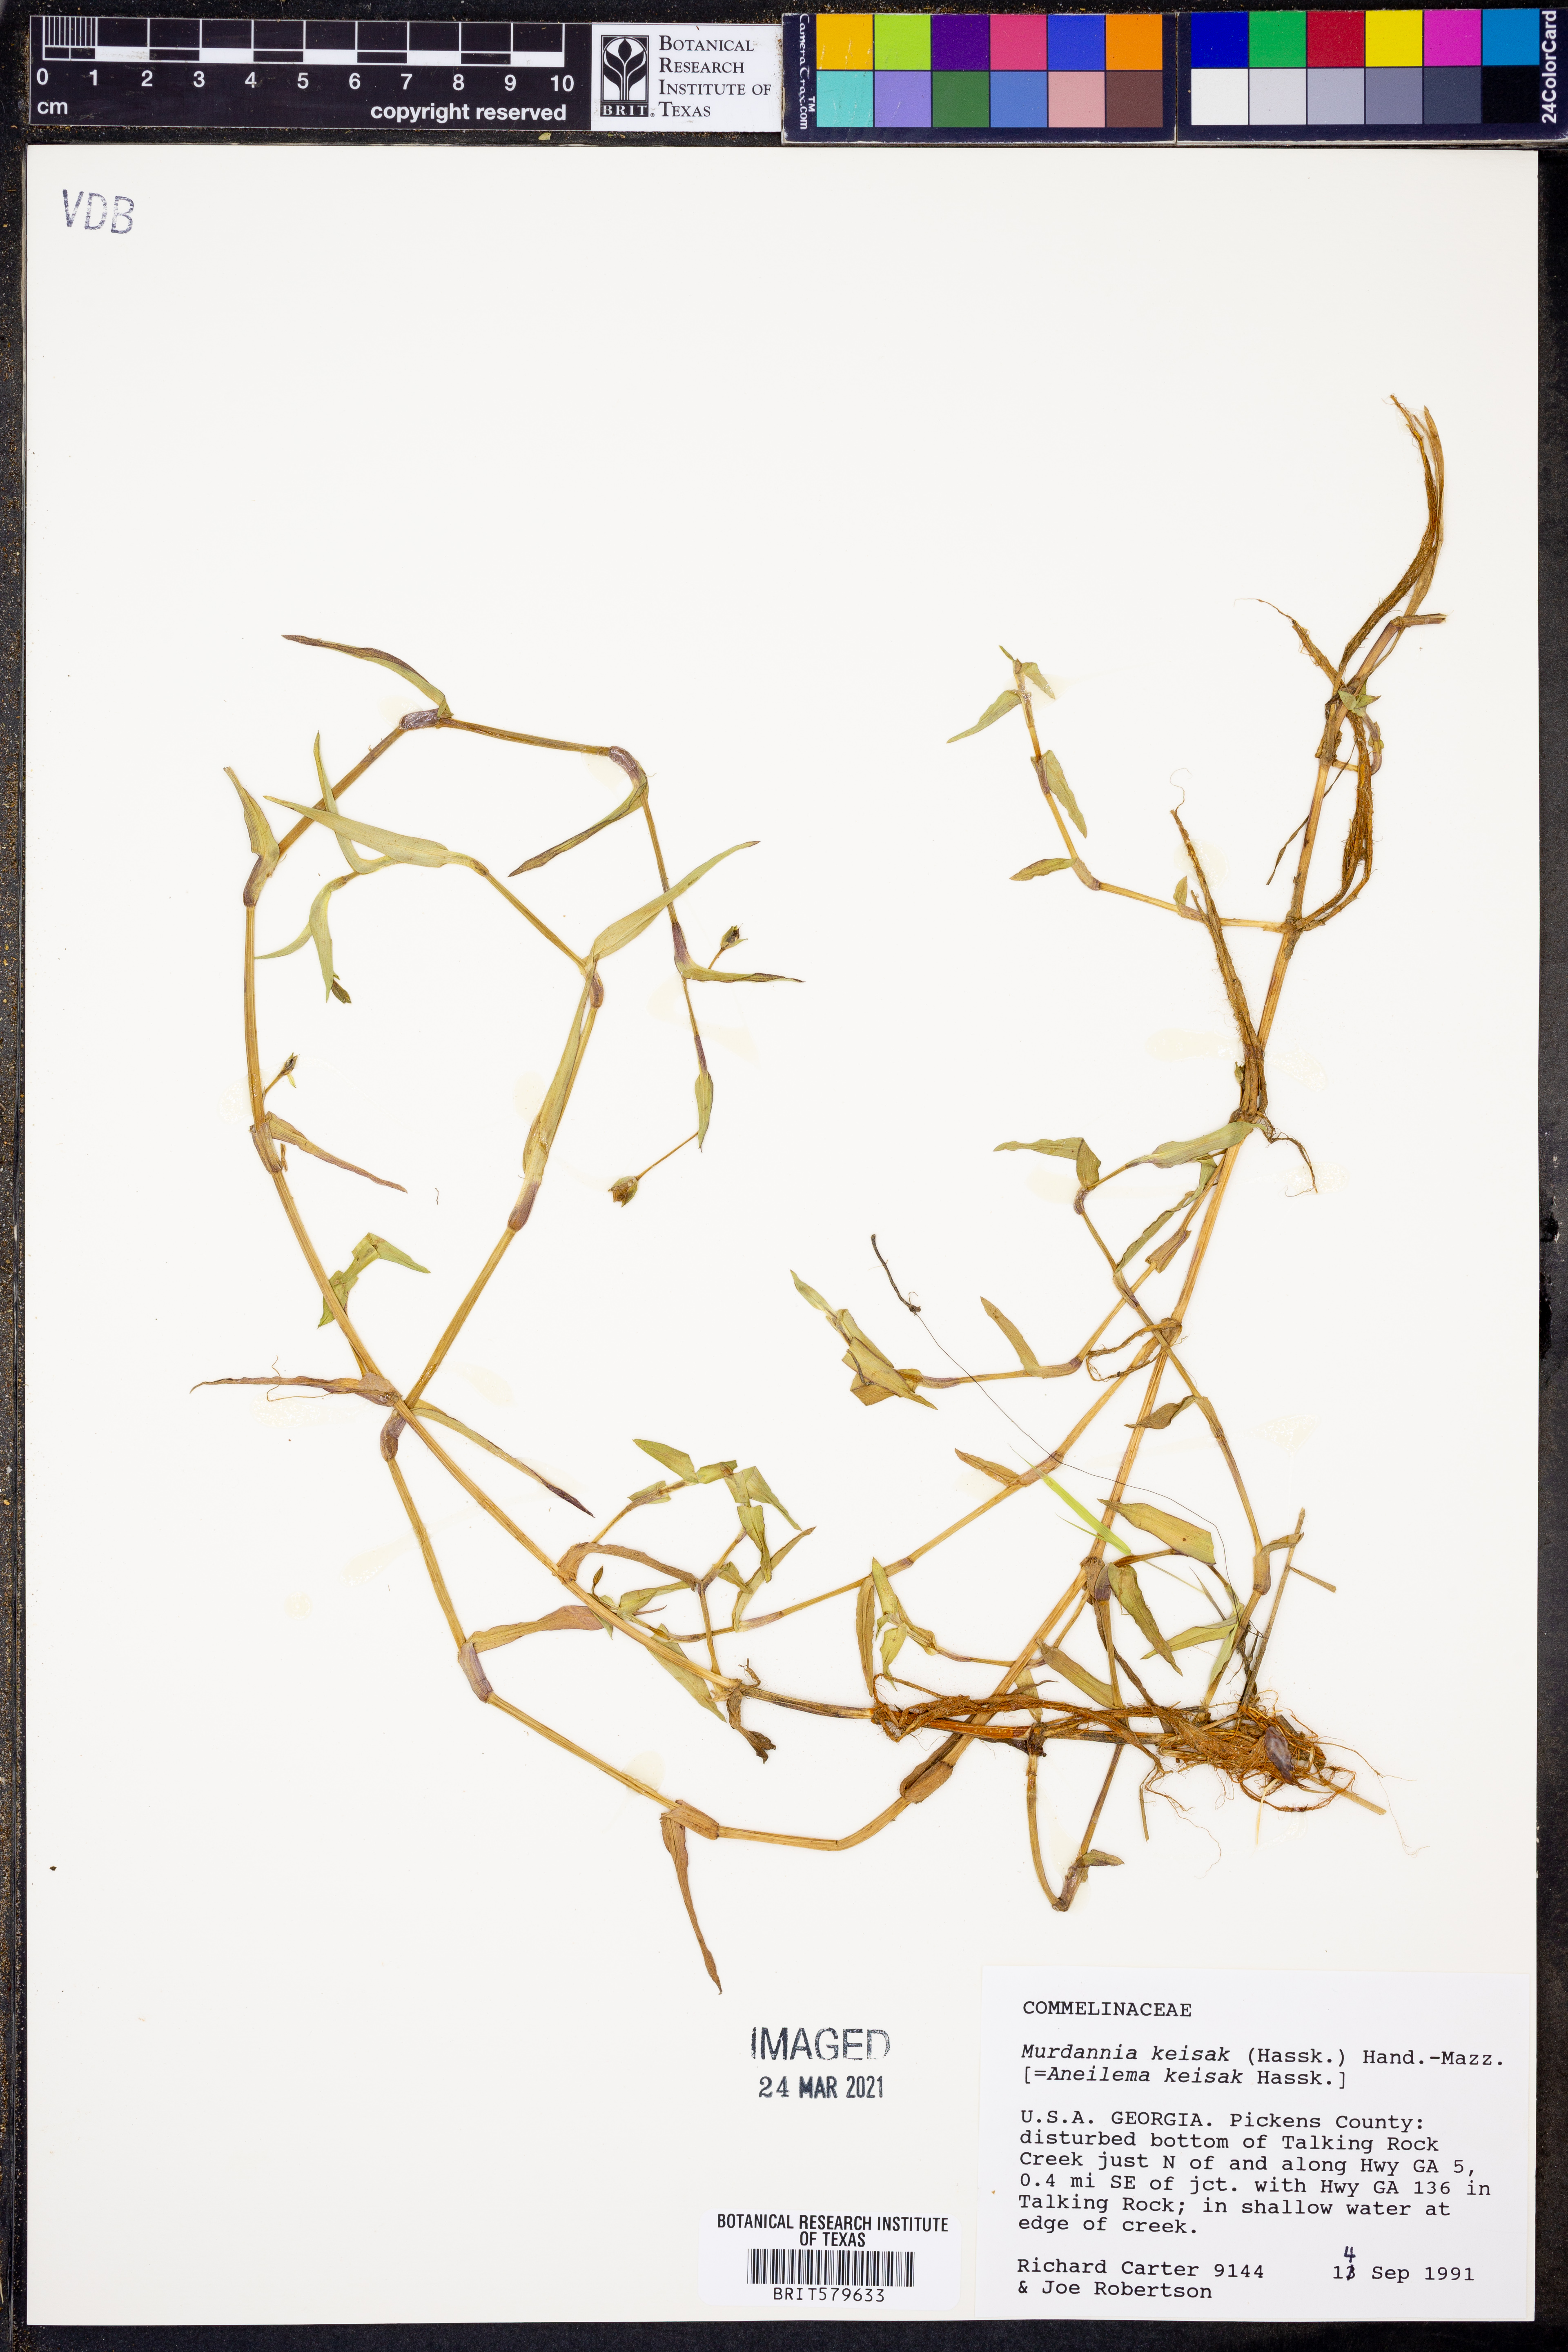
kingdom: Plantae
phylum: Tracheophyta
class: Liliopsida
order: Commelinales
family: Commelinaceae
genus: Murdannia
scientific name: Murdannia keisak
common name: Wartremoving herb
